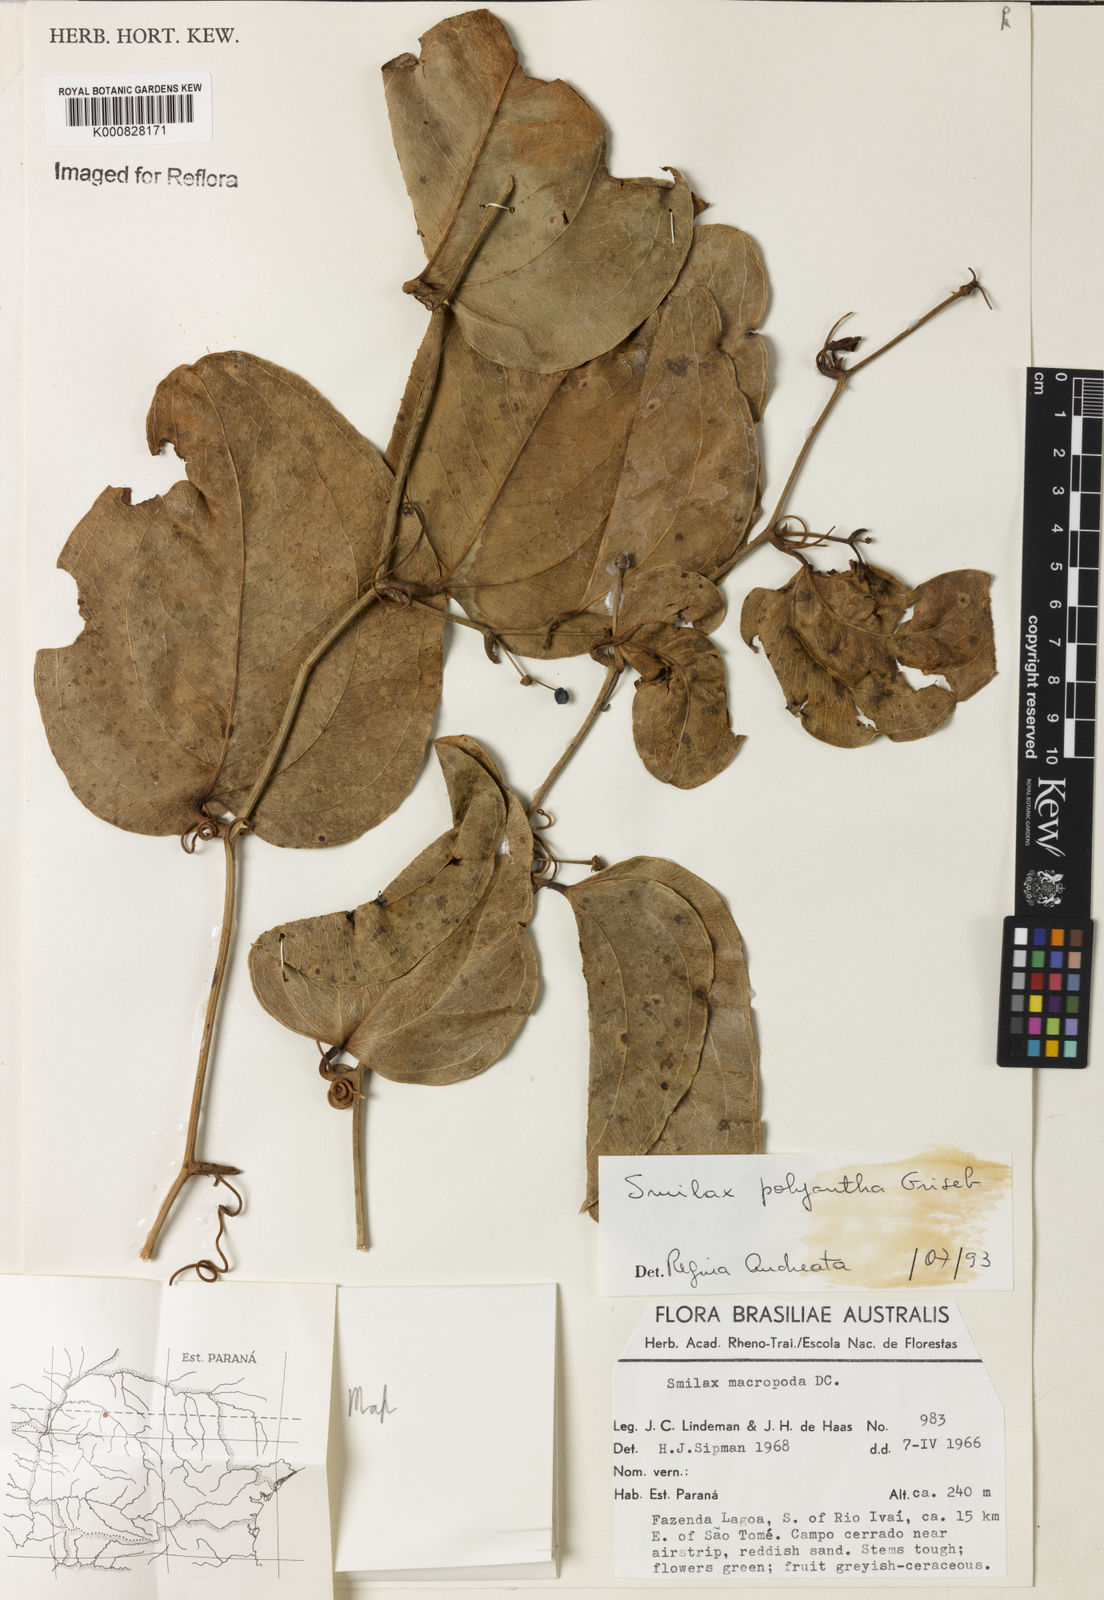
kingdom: Plantae
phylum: Tracheophyta
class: Liliopsida
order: Liliales
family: Smilacaceae
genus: Smilax
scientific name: Smilax polyantha
